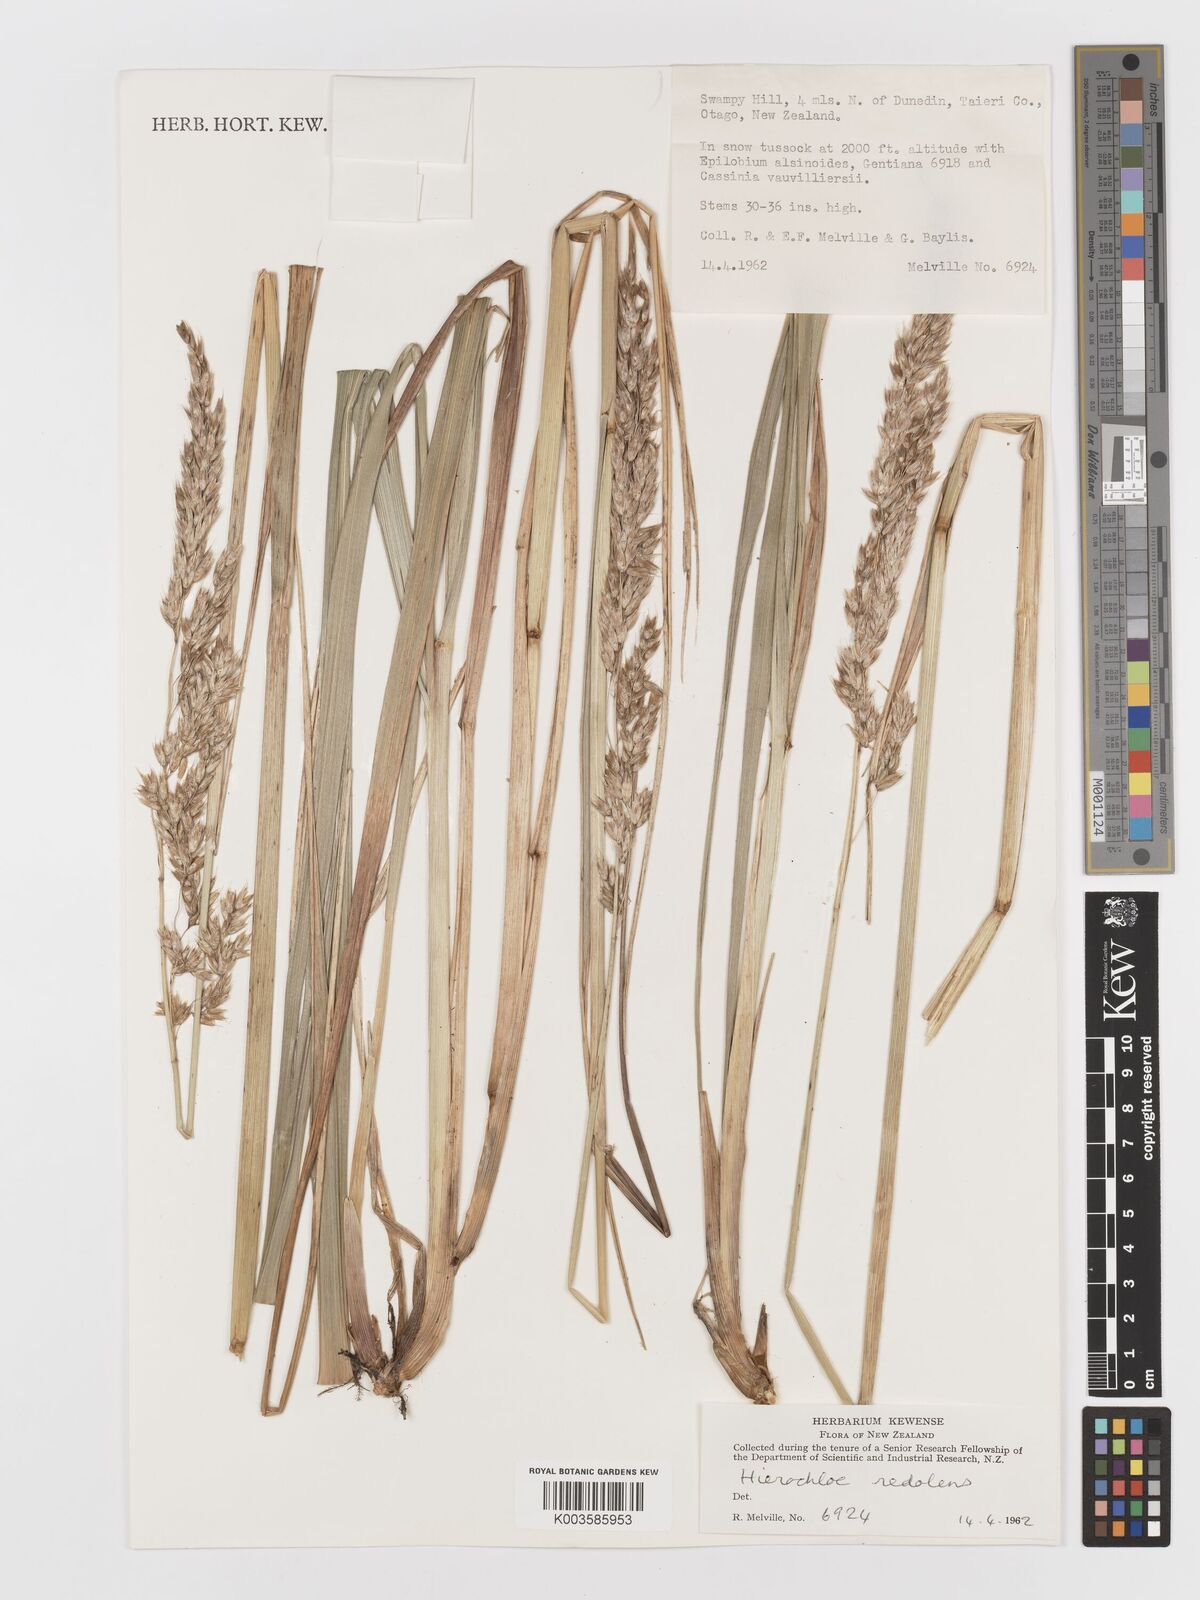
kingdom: Plantae
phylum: Tracheophyta
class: Liliopsida
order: Poales
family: Poaceae
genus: Anthoxanthum
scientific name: Anthoxanthum redolens
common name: Sweet holy grass
